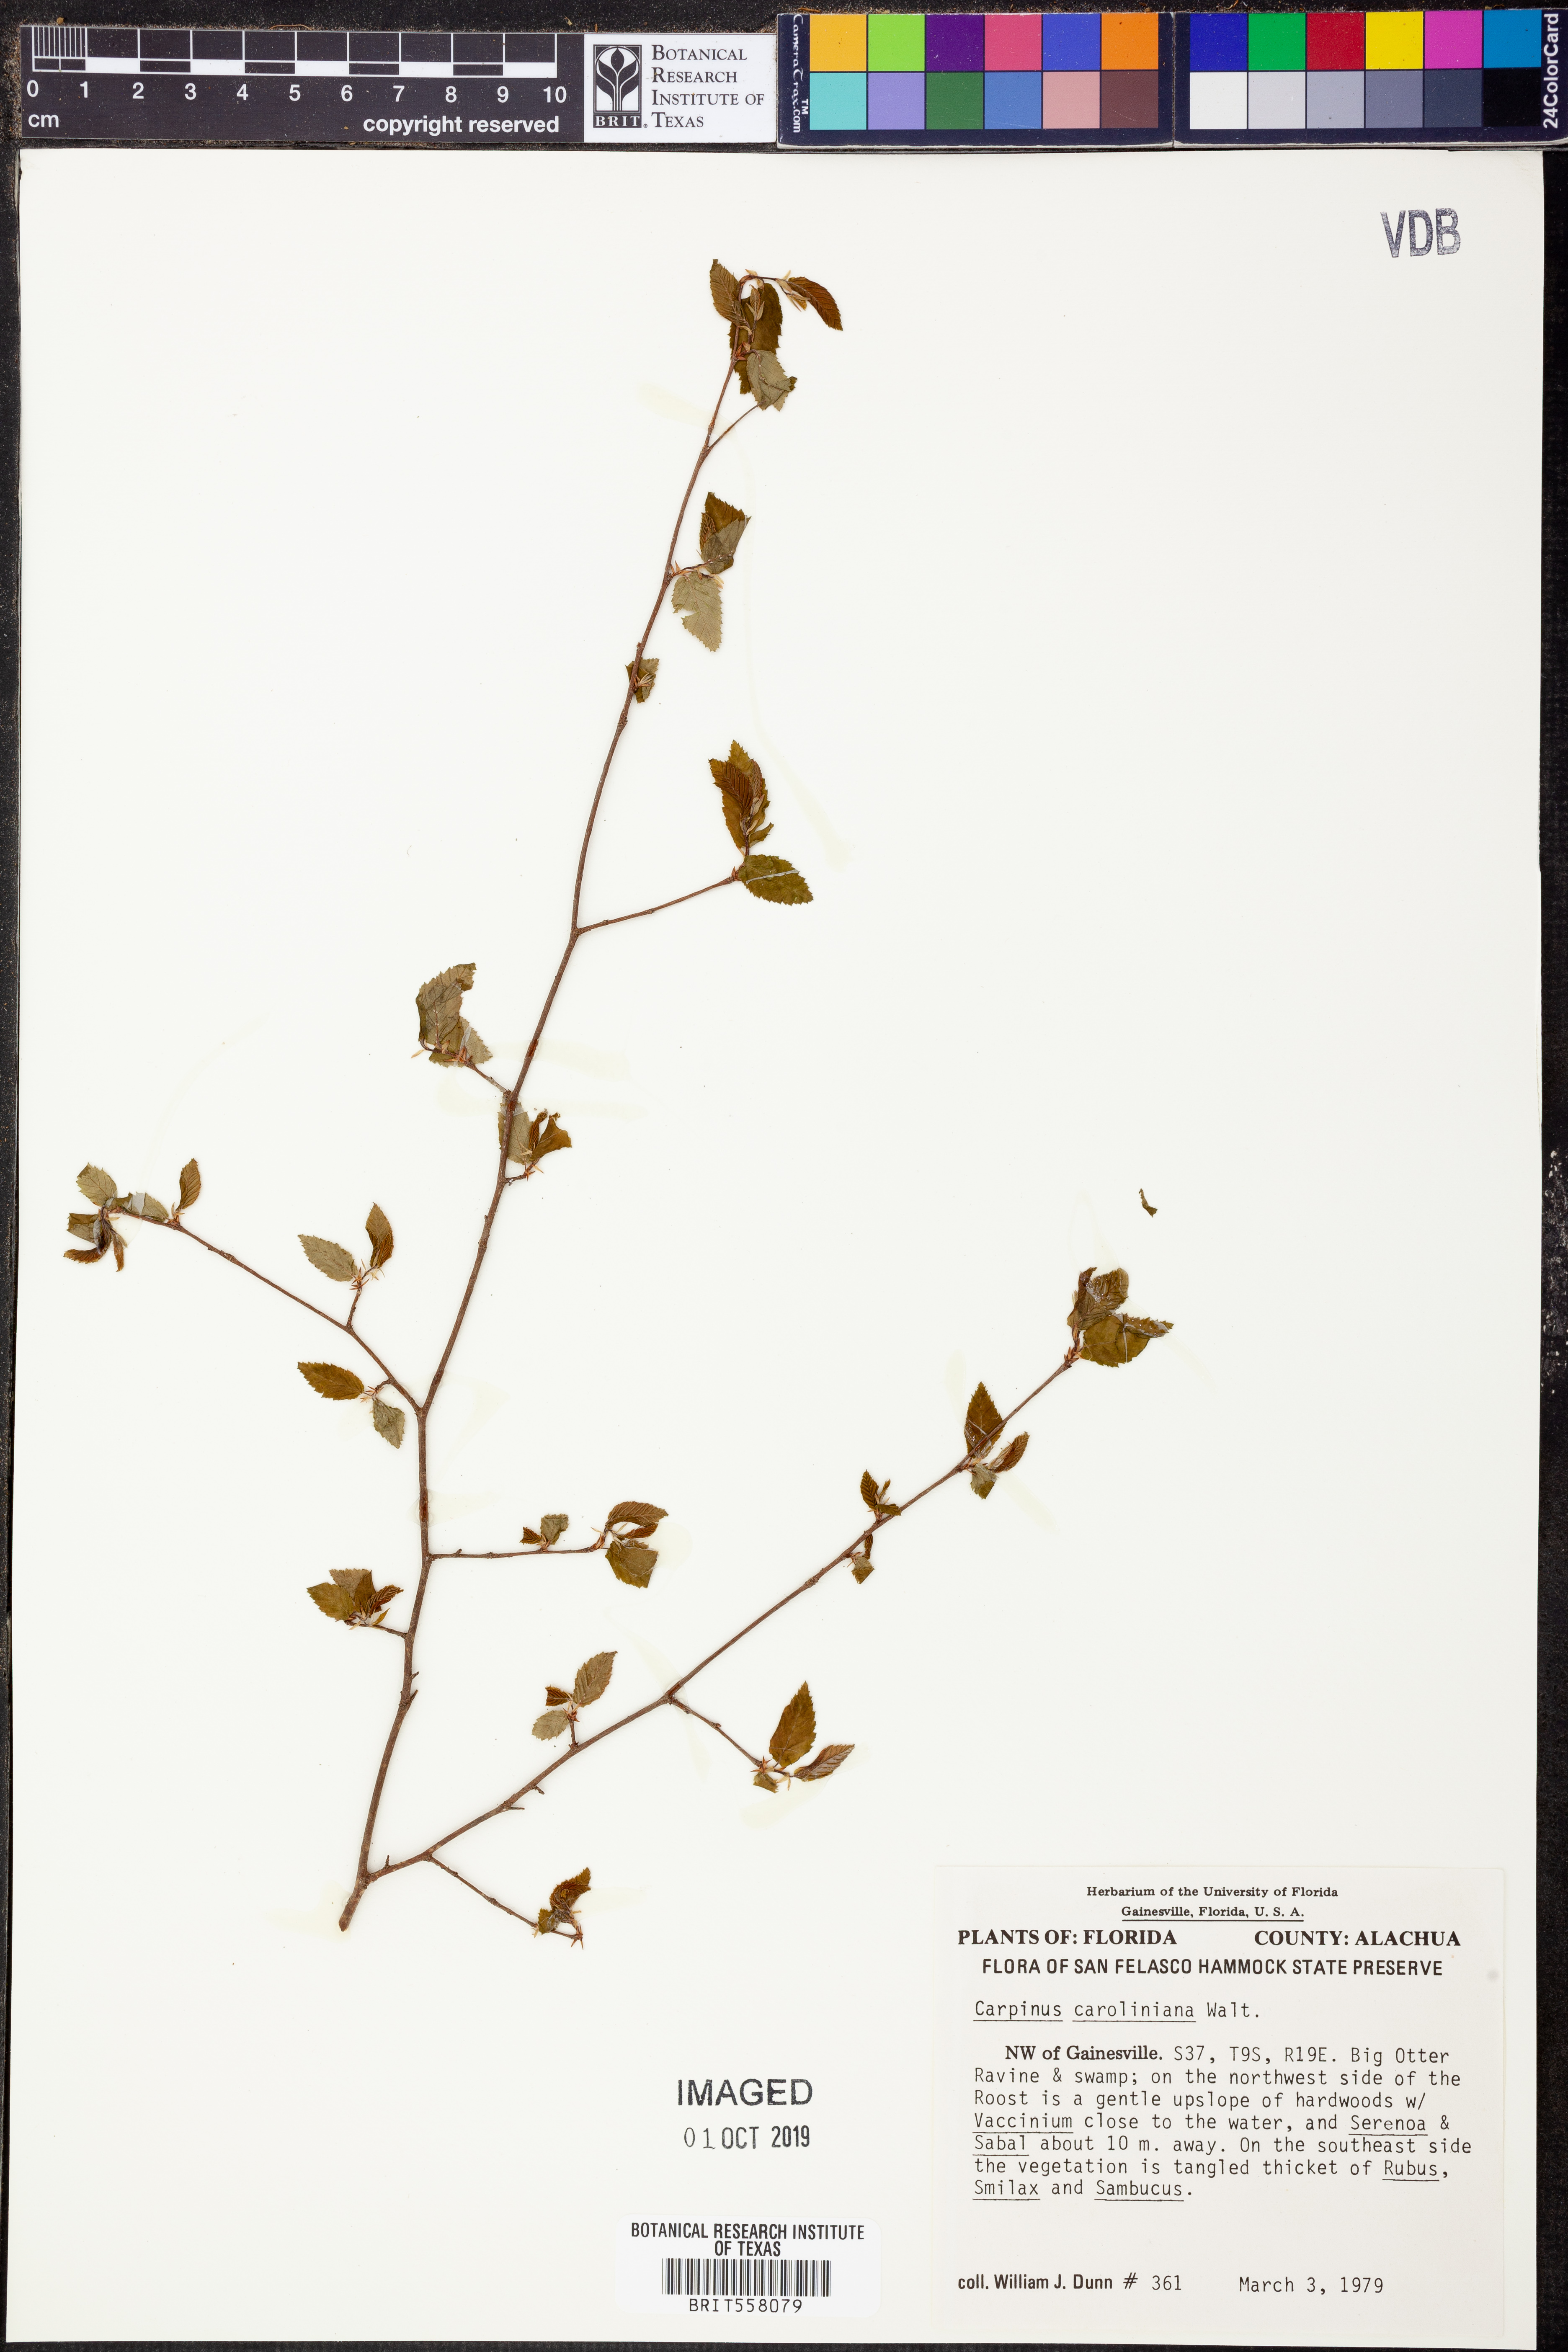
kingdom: Plantae
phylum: Tracheophyta
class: Magnoliopsida
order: Fagales
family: Betulaceae
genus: Carpinus
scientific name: Carpinus caroliniana
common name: American hornbeam
